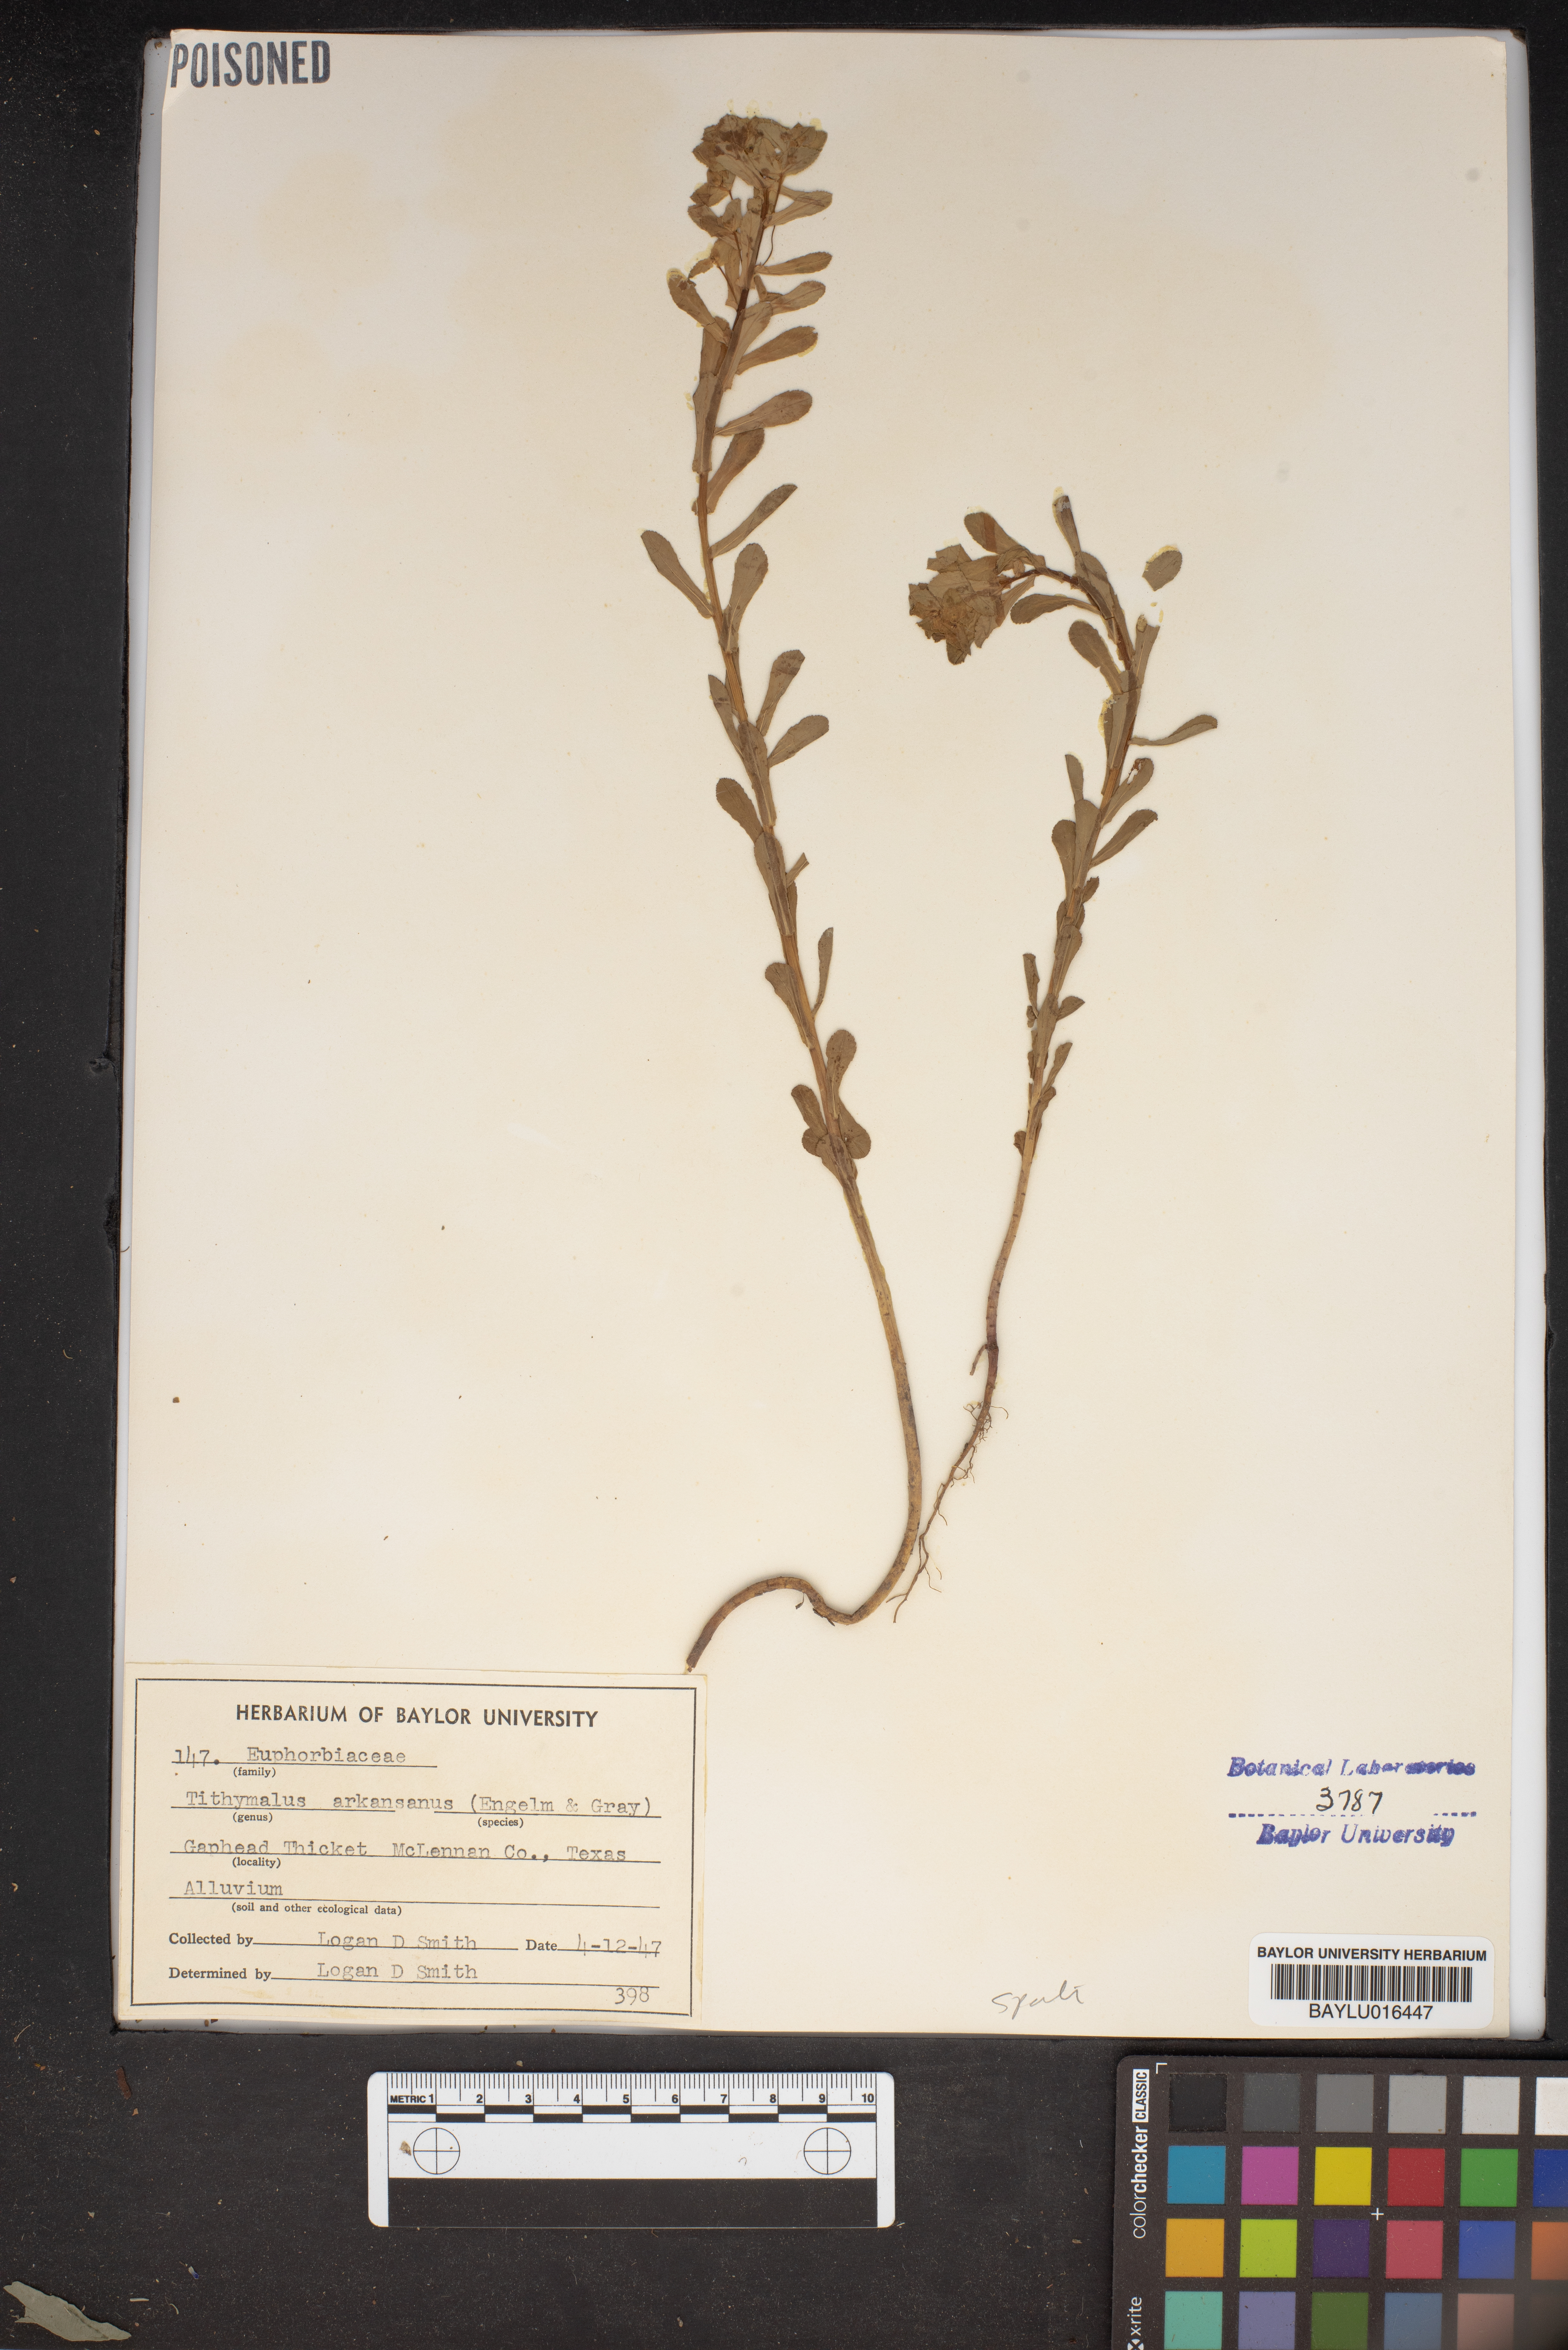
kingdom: Plantae
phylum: Tracheophyta
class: Magnoliopsida
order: Malpighiales
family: Euphorbiaceae
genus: Euphorbia
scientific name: Euphorbia spathulata
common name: Blunt spurge
